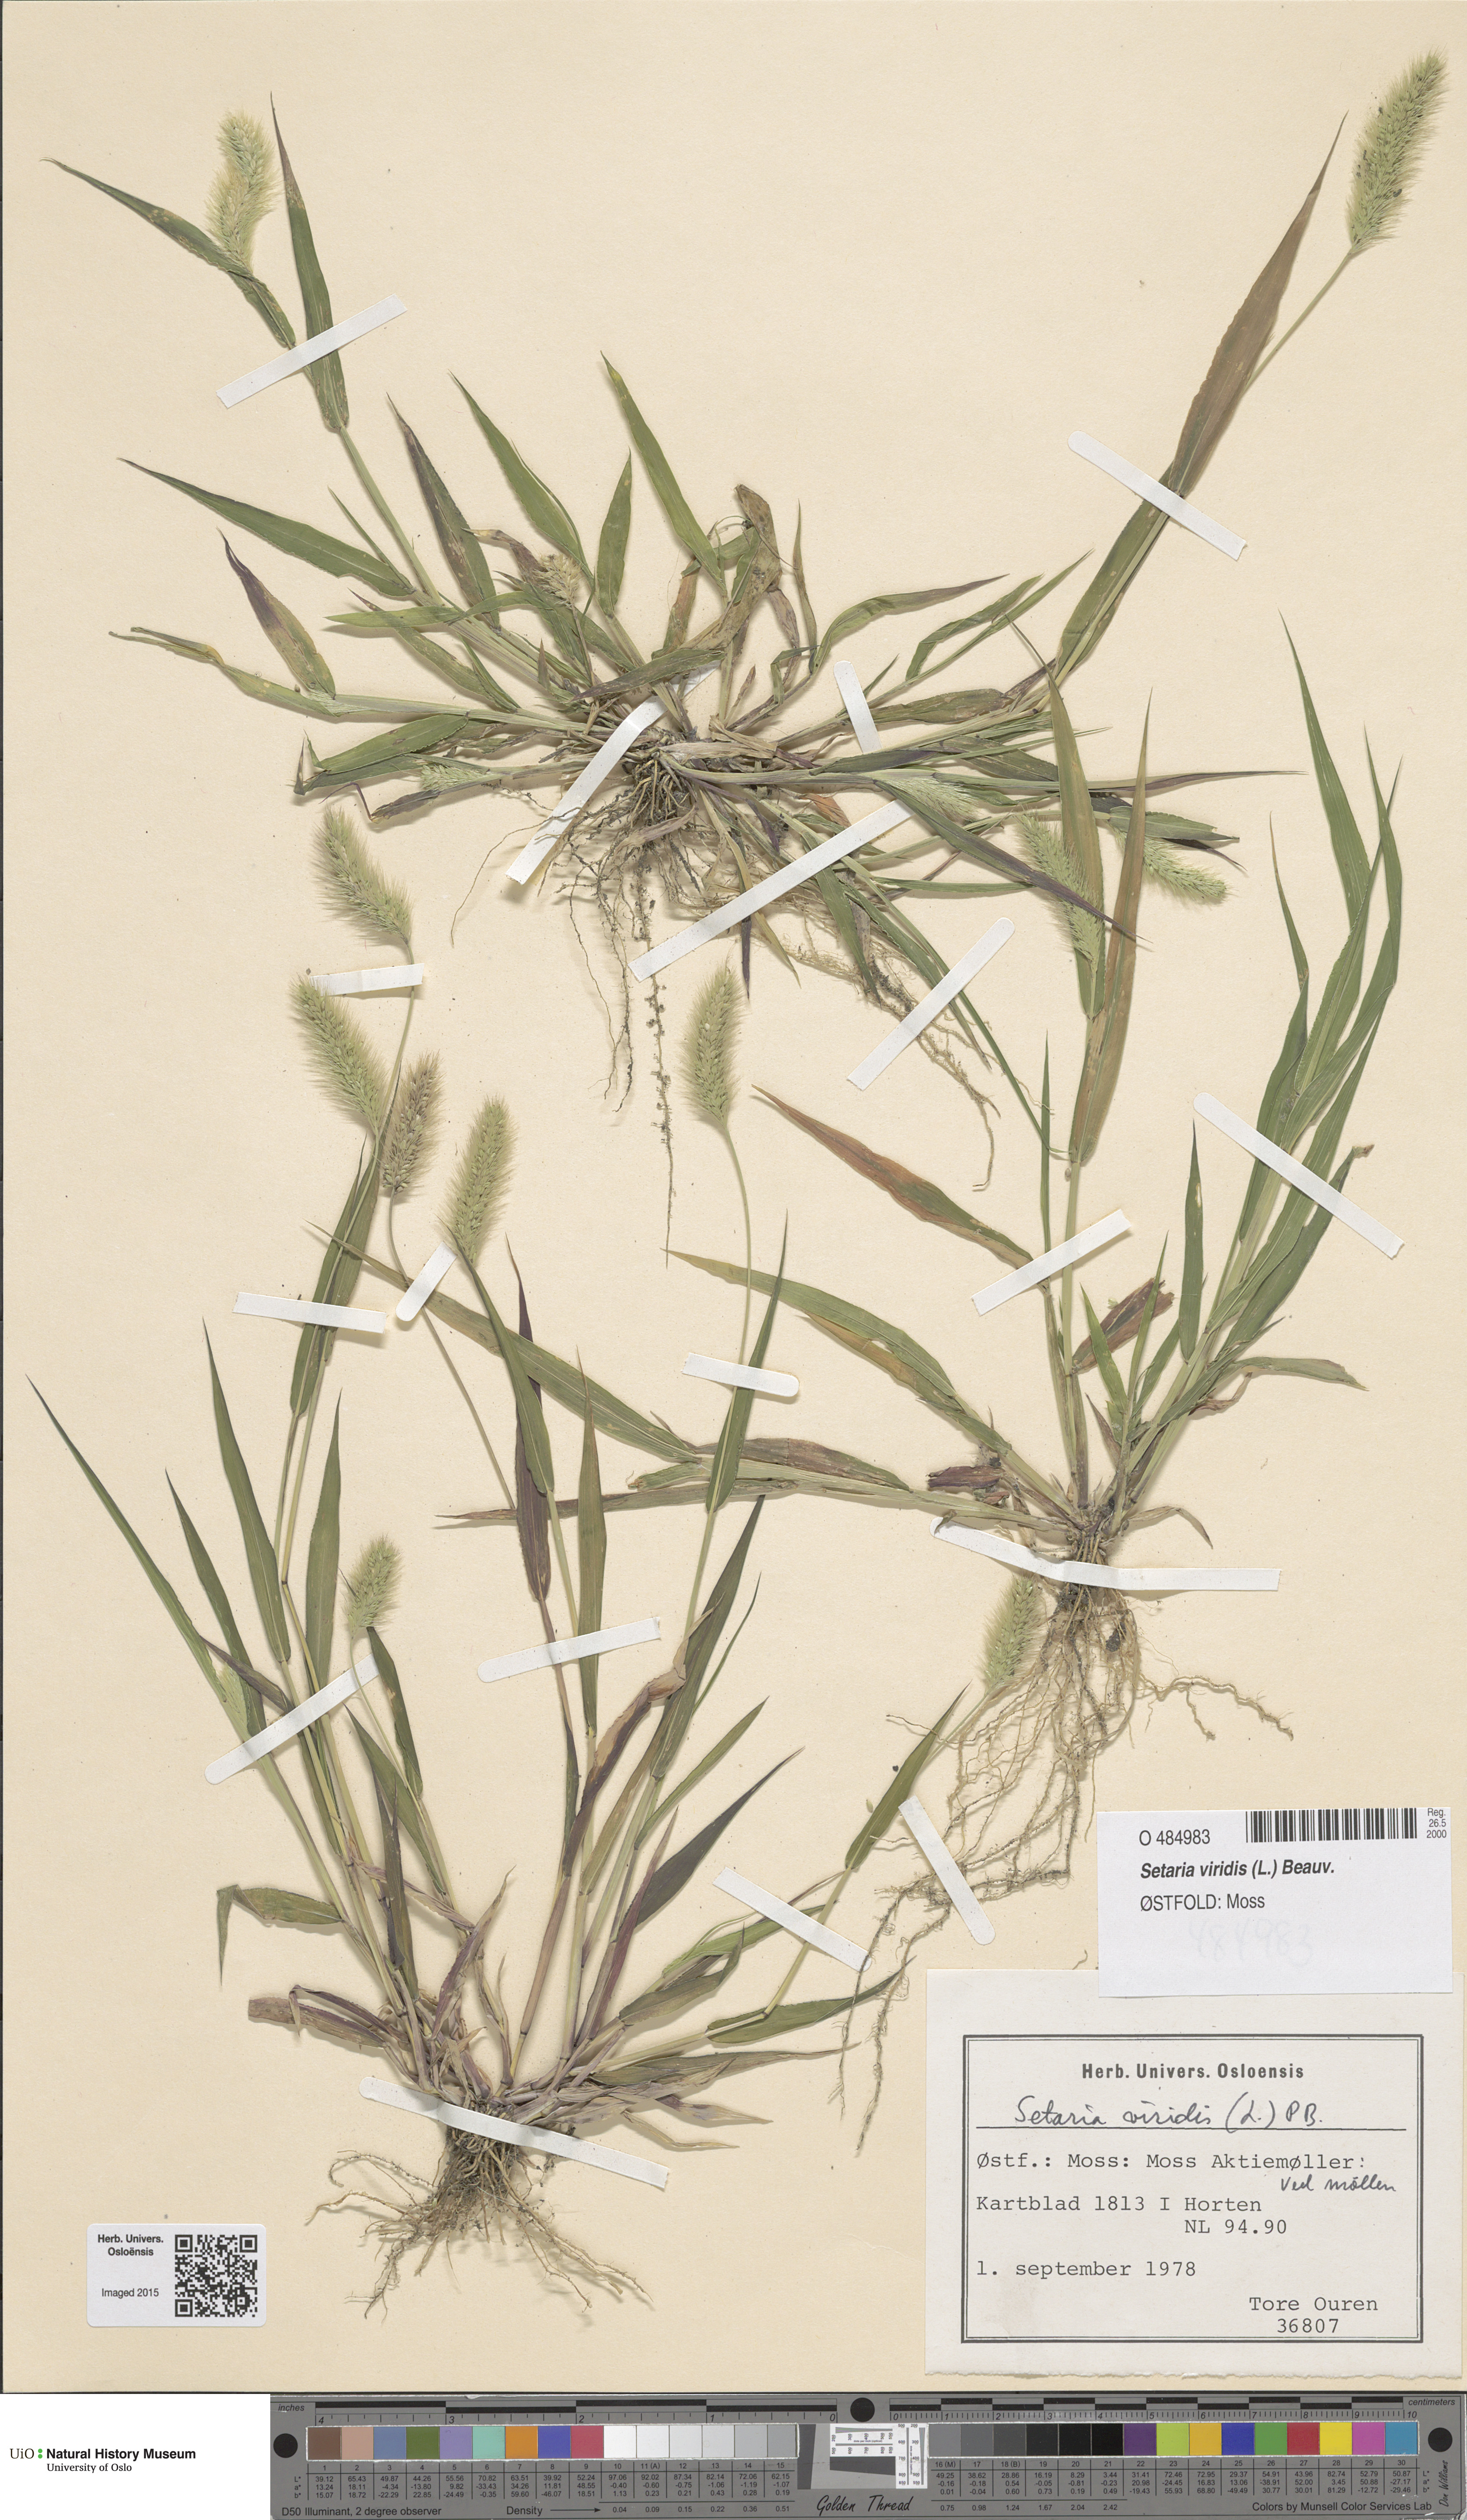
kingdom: Plantae
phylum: Tracheophyta
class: Liliopsida
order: Poales
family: Poaceae
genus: Setaria
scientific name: Setaria viridis
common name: Green bristlegrass
